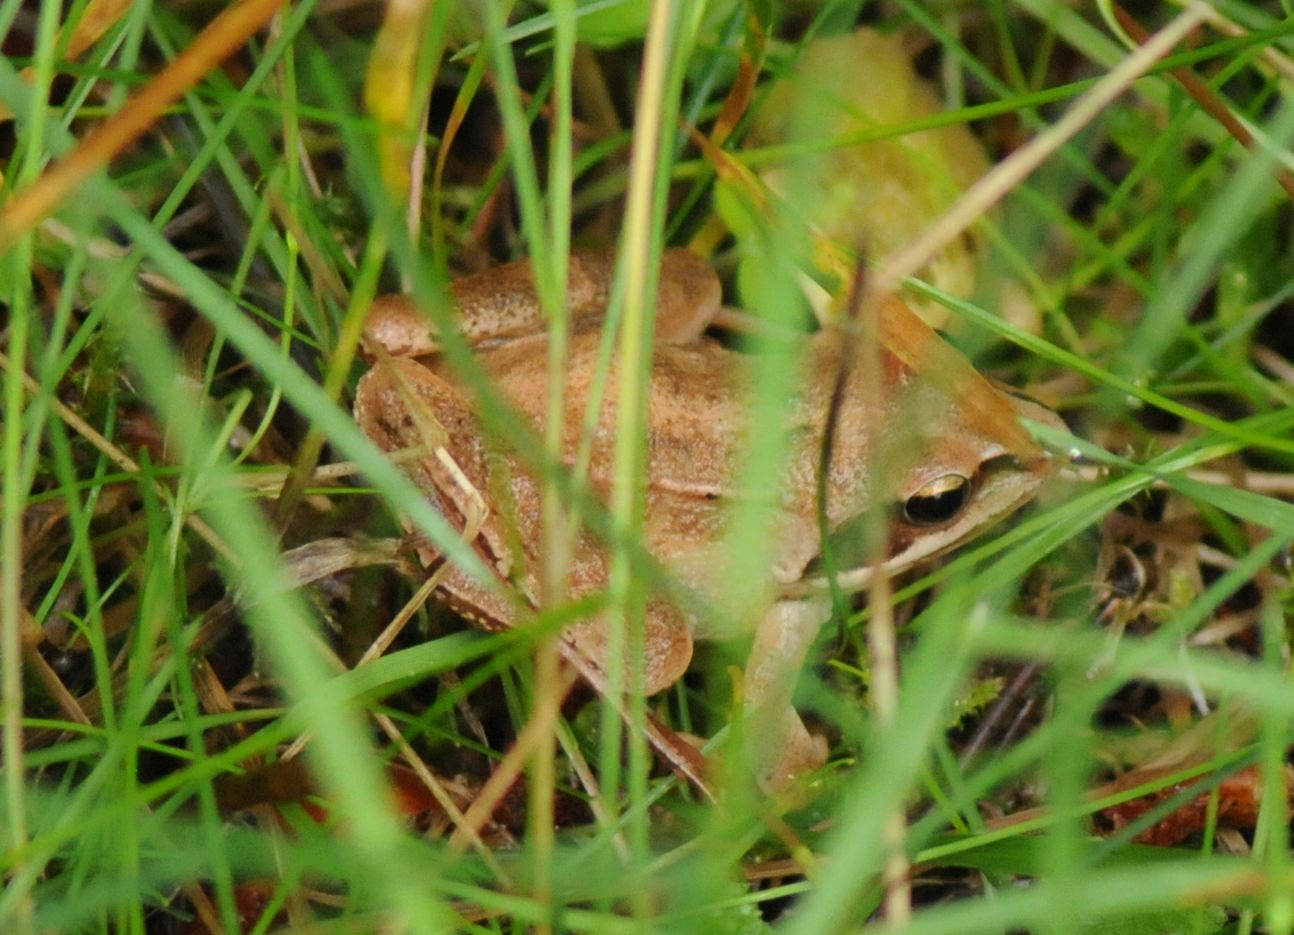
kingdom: Animalia
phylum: Chordata
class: Amphibia
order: Anura
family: Ranidae
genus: Rana
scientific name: Rana dalmatina
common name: Springfrø
